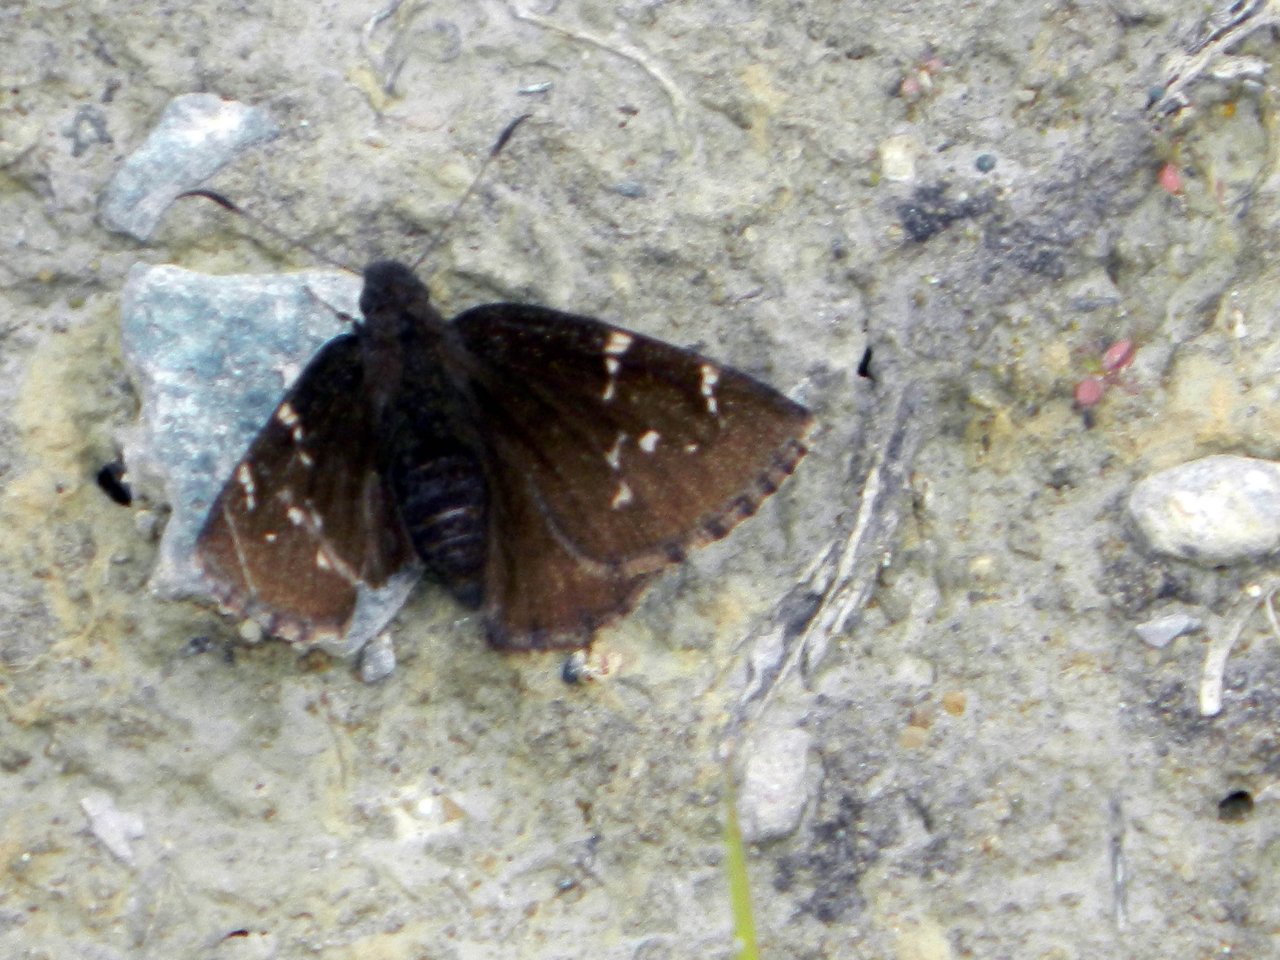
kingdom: Animalia
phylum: Arthropoda
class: Insecta
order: Lepidoptera
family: Hesperiidae
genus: Autochton
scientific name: Autochton
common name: Northern Cloudywing
